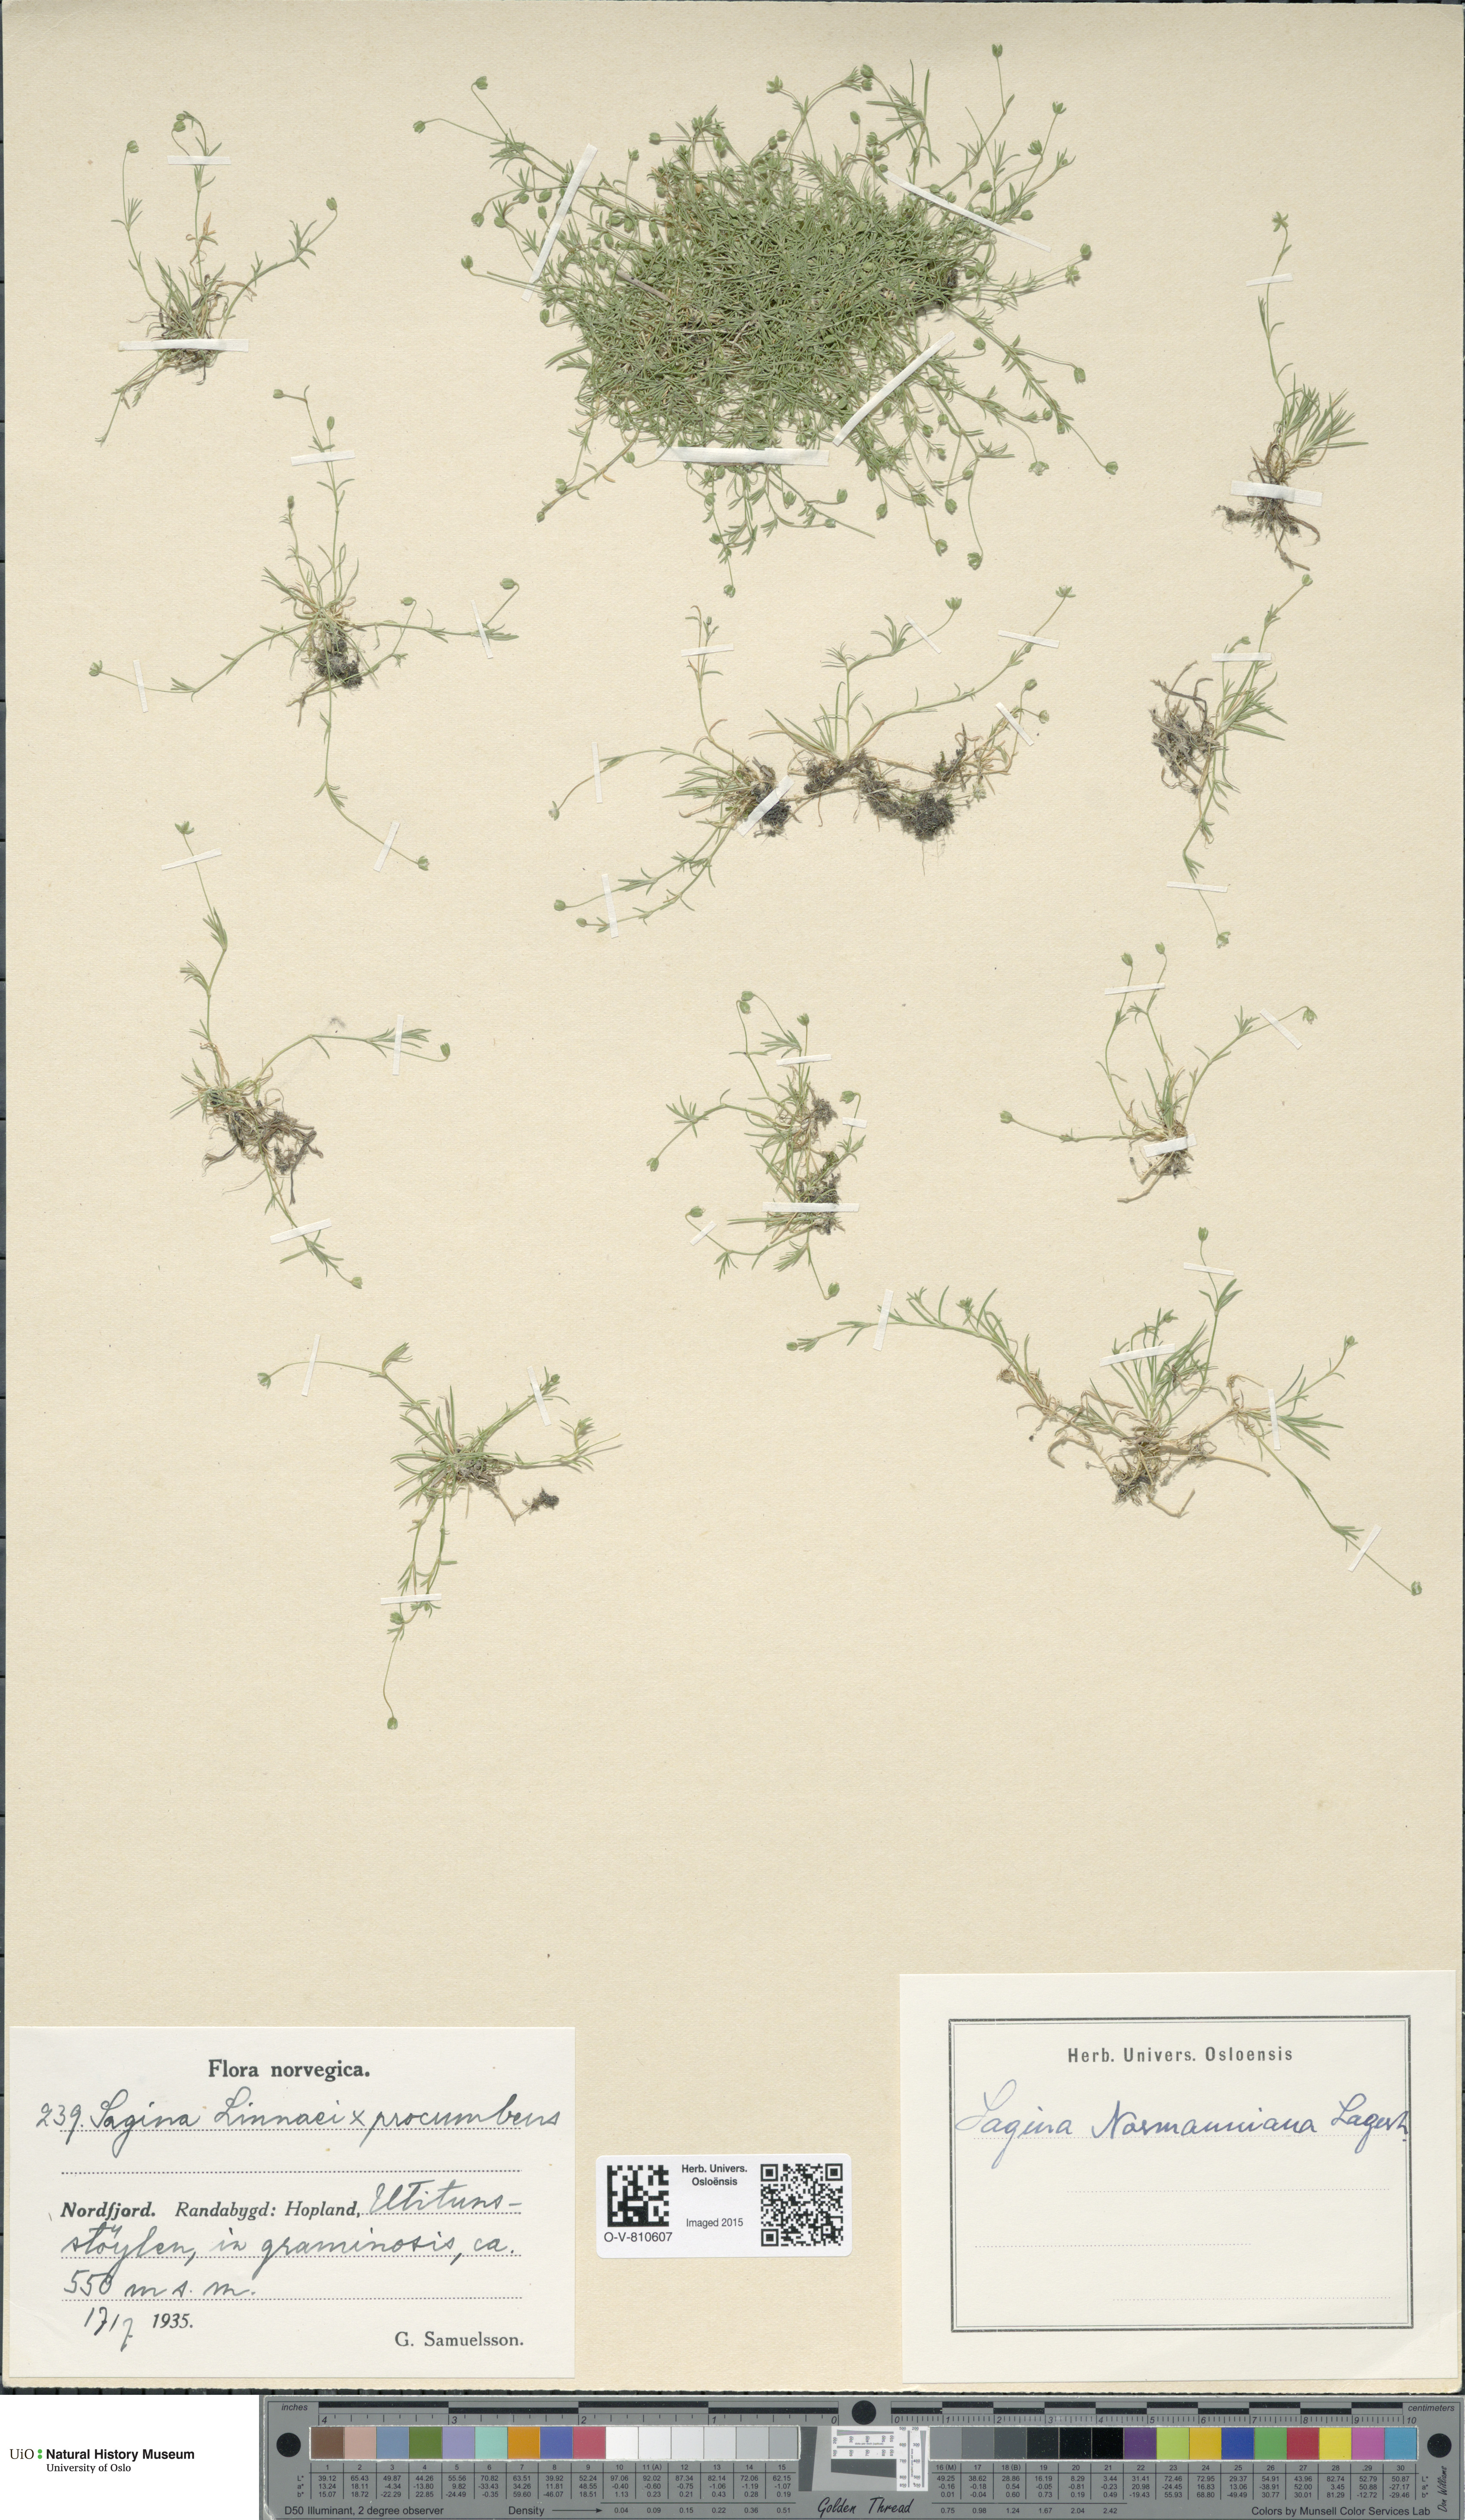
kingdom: Plantae
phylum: Tracheophyta
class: Magnoliopsida
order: Caryophyllales
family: Caryophyllaceae
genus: Sagina
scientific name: Sagina
